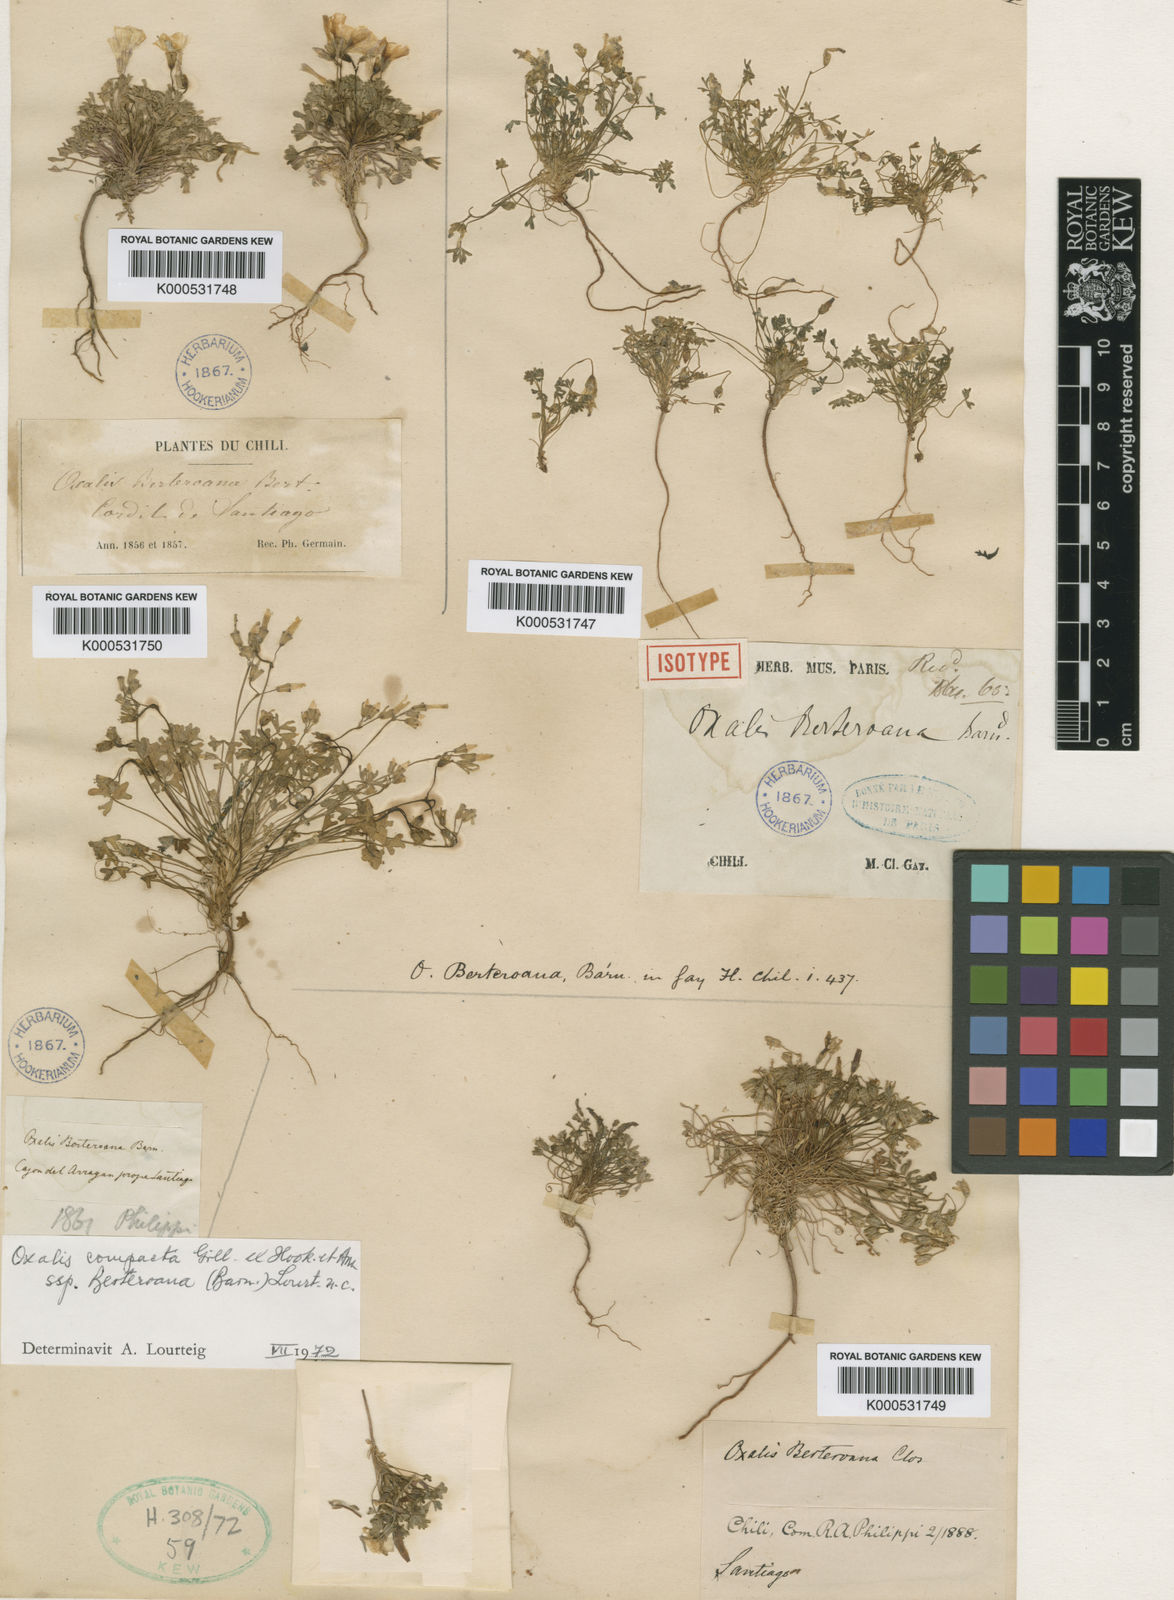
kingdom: Plantae
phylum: Tracheophyta
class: Magnoliopsida
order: Oxalidales
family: Oxalidaceae
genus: Oxalis
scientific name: Oxalis compacta
